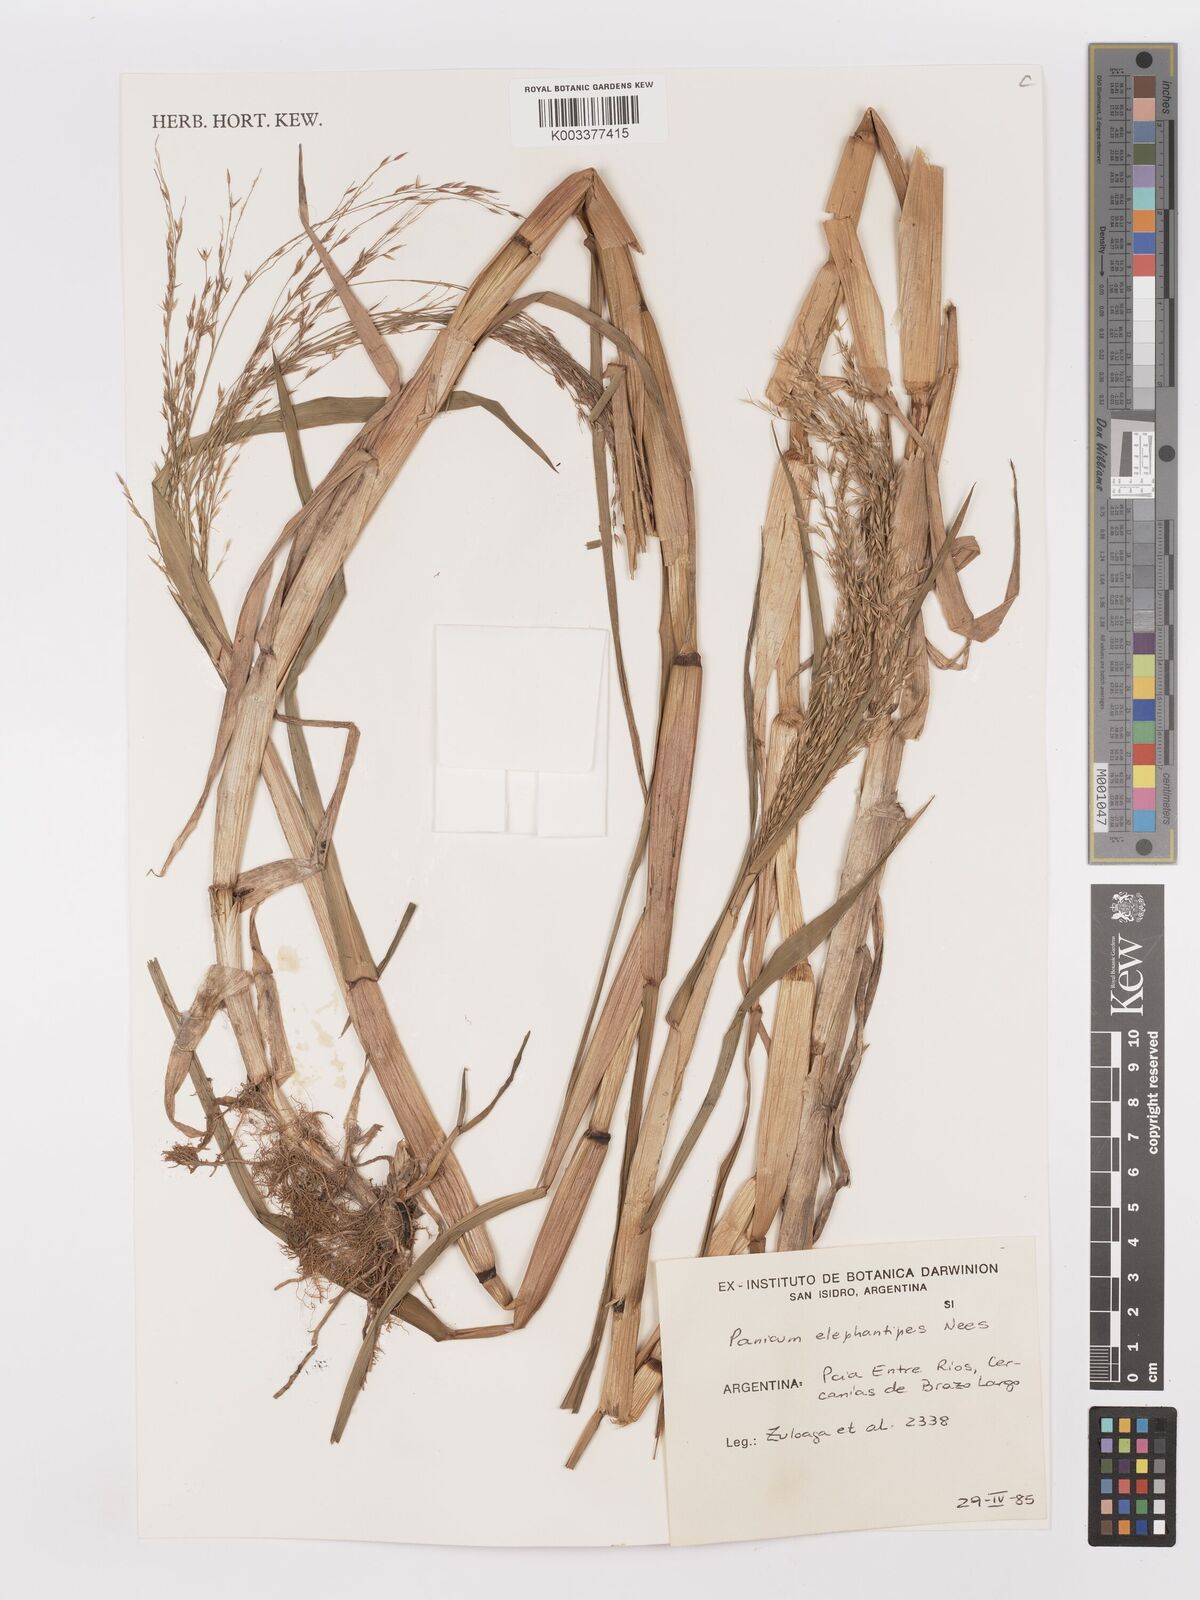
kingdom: Plantae
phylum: Tracheophyta
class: Liliopsida
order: Poales
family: Poaceae
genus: Louisiella
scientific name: Louisiella elephantipes
